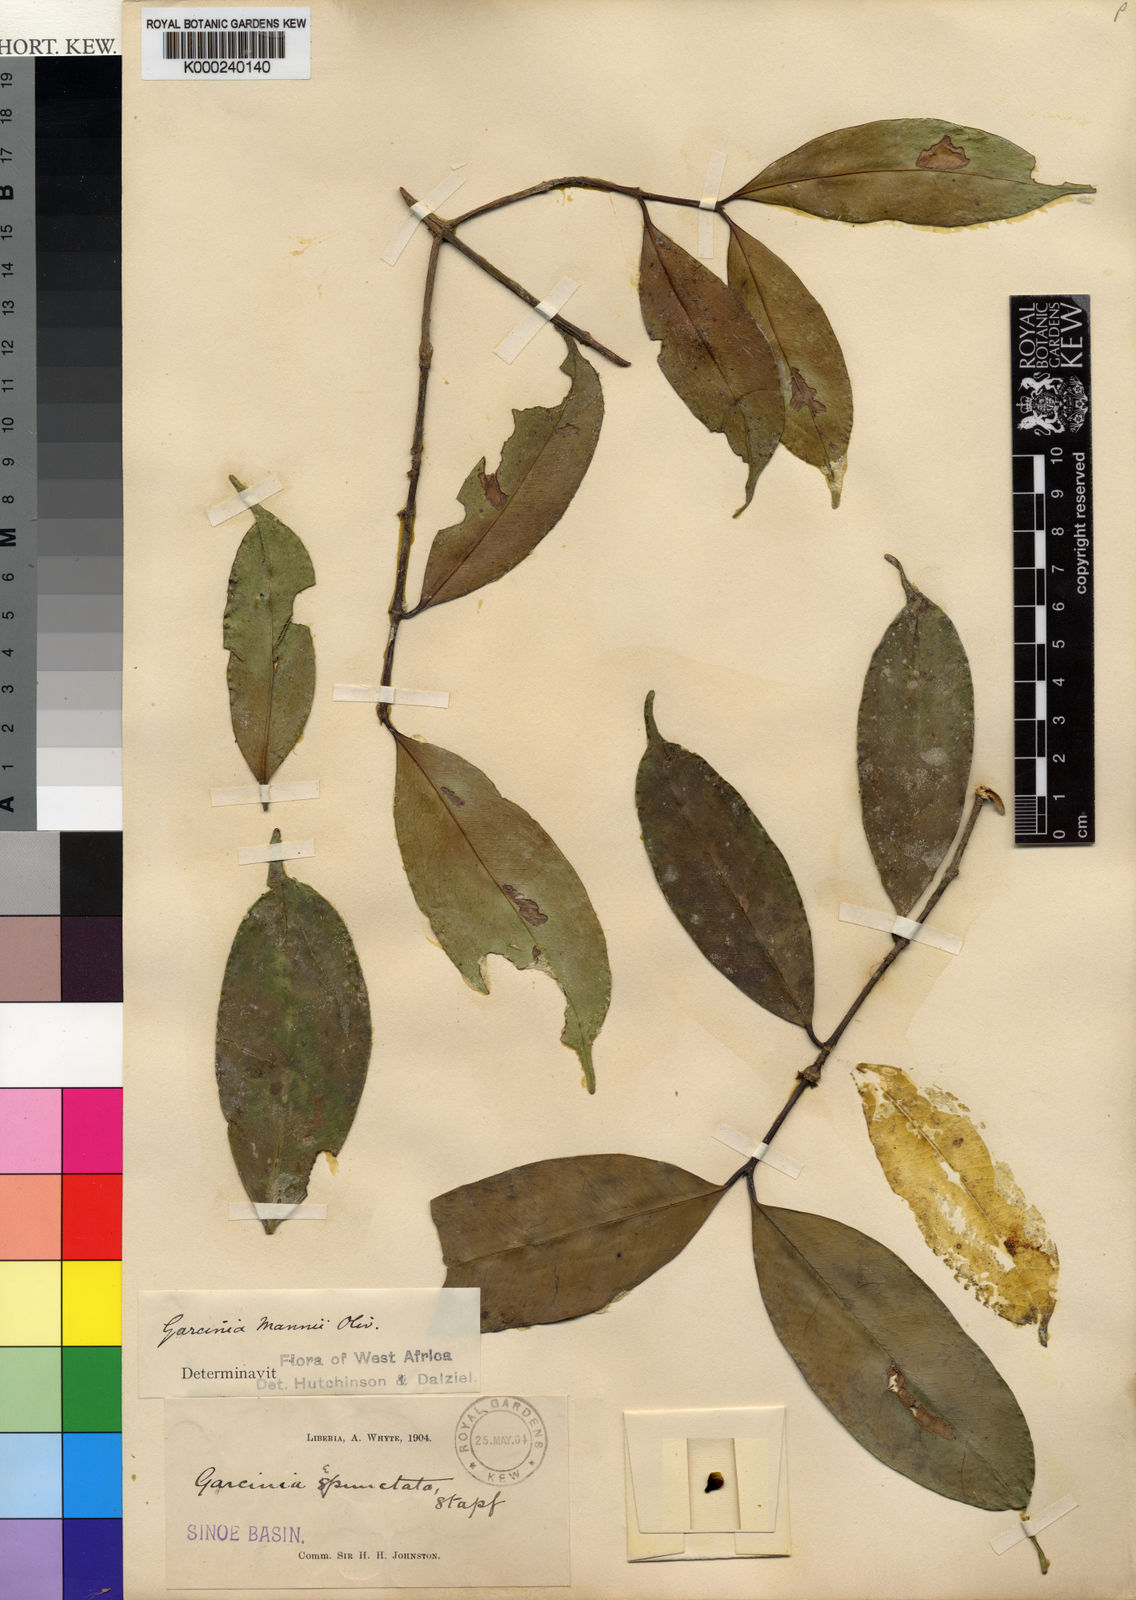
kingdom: Plantae
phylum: Tracheophyta
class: Magnoliopsida
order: Malpighiales
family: Clusiaceae
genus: Garcinia
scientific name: Garcinia epunctata
